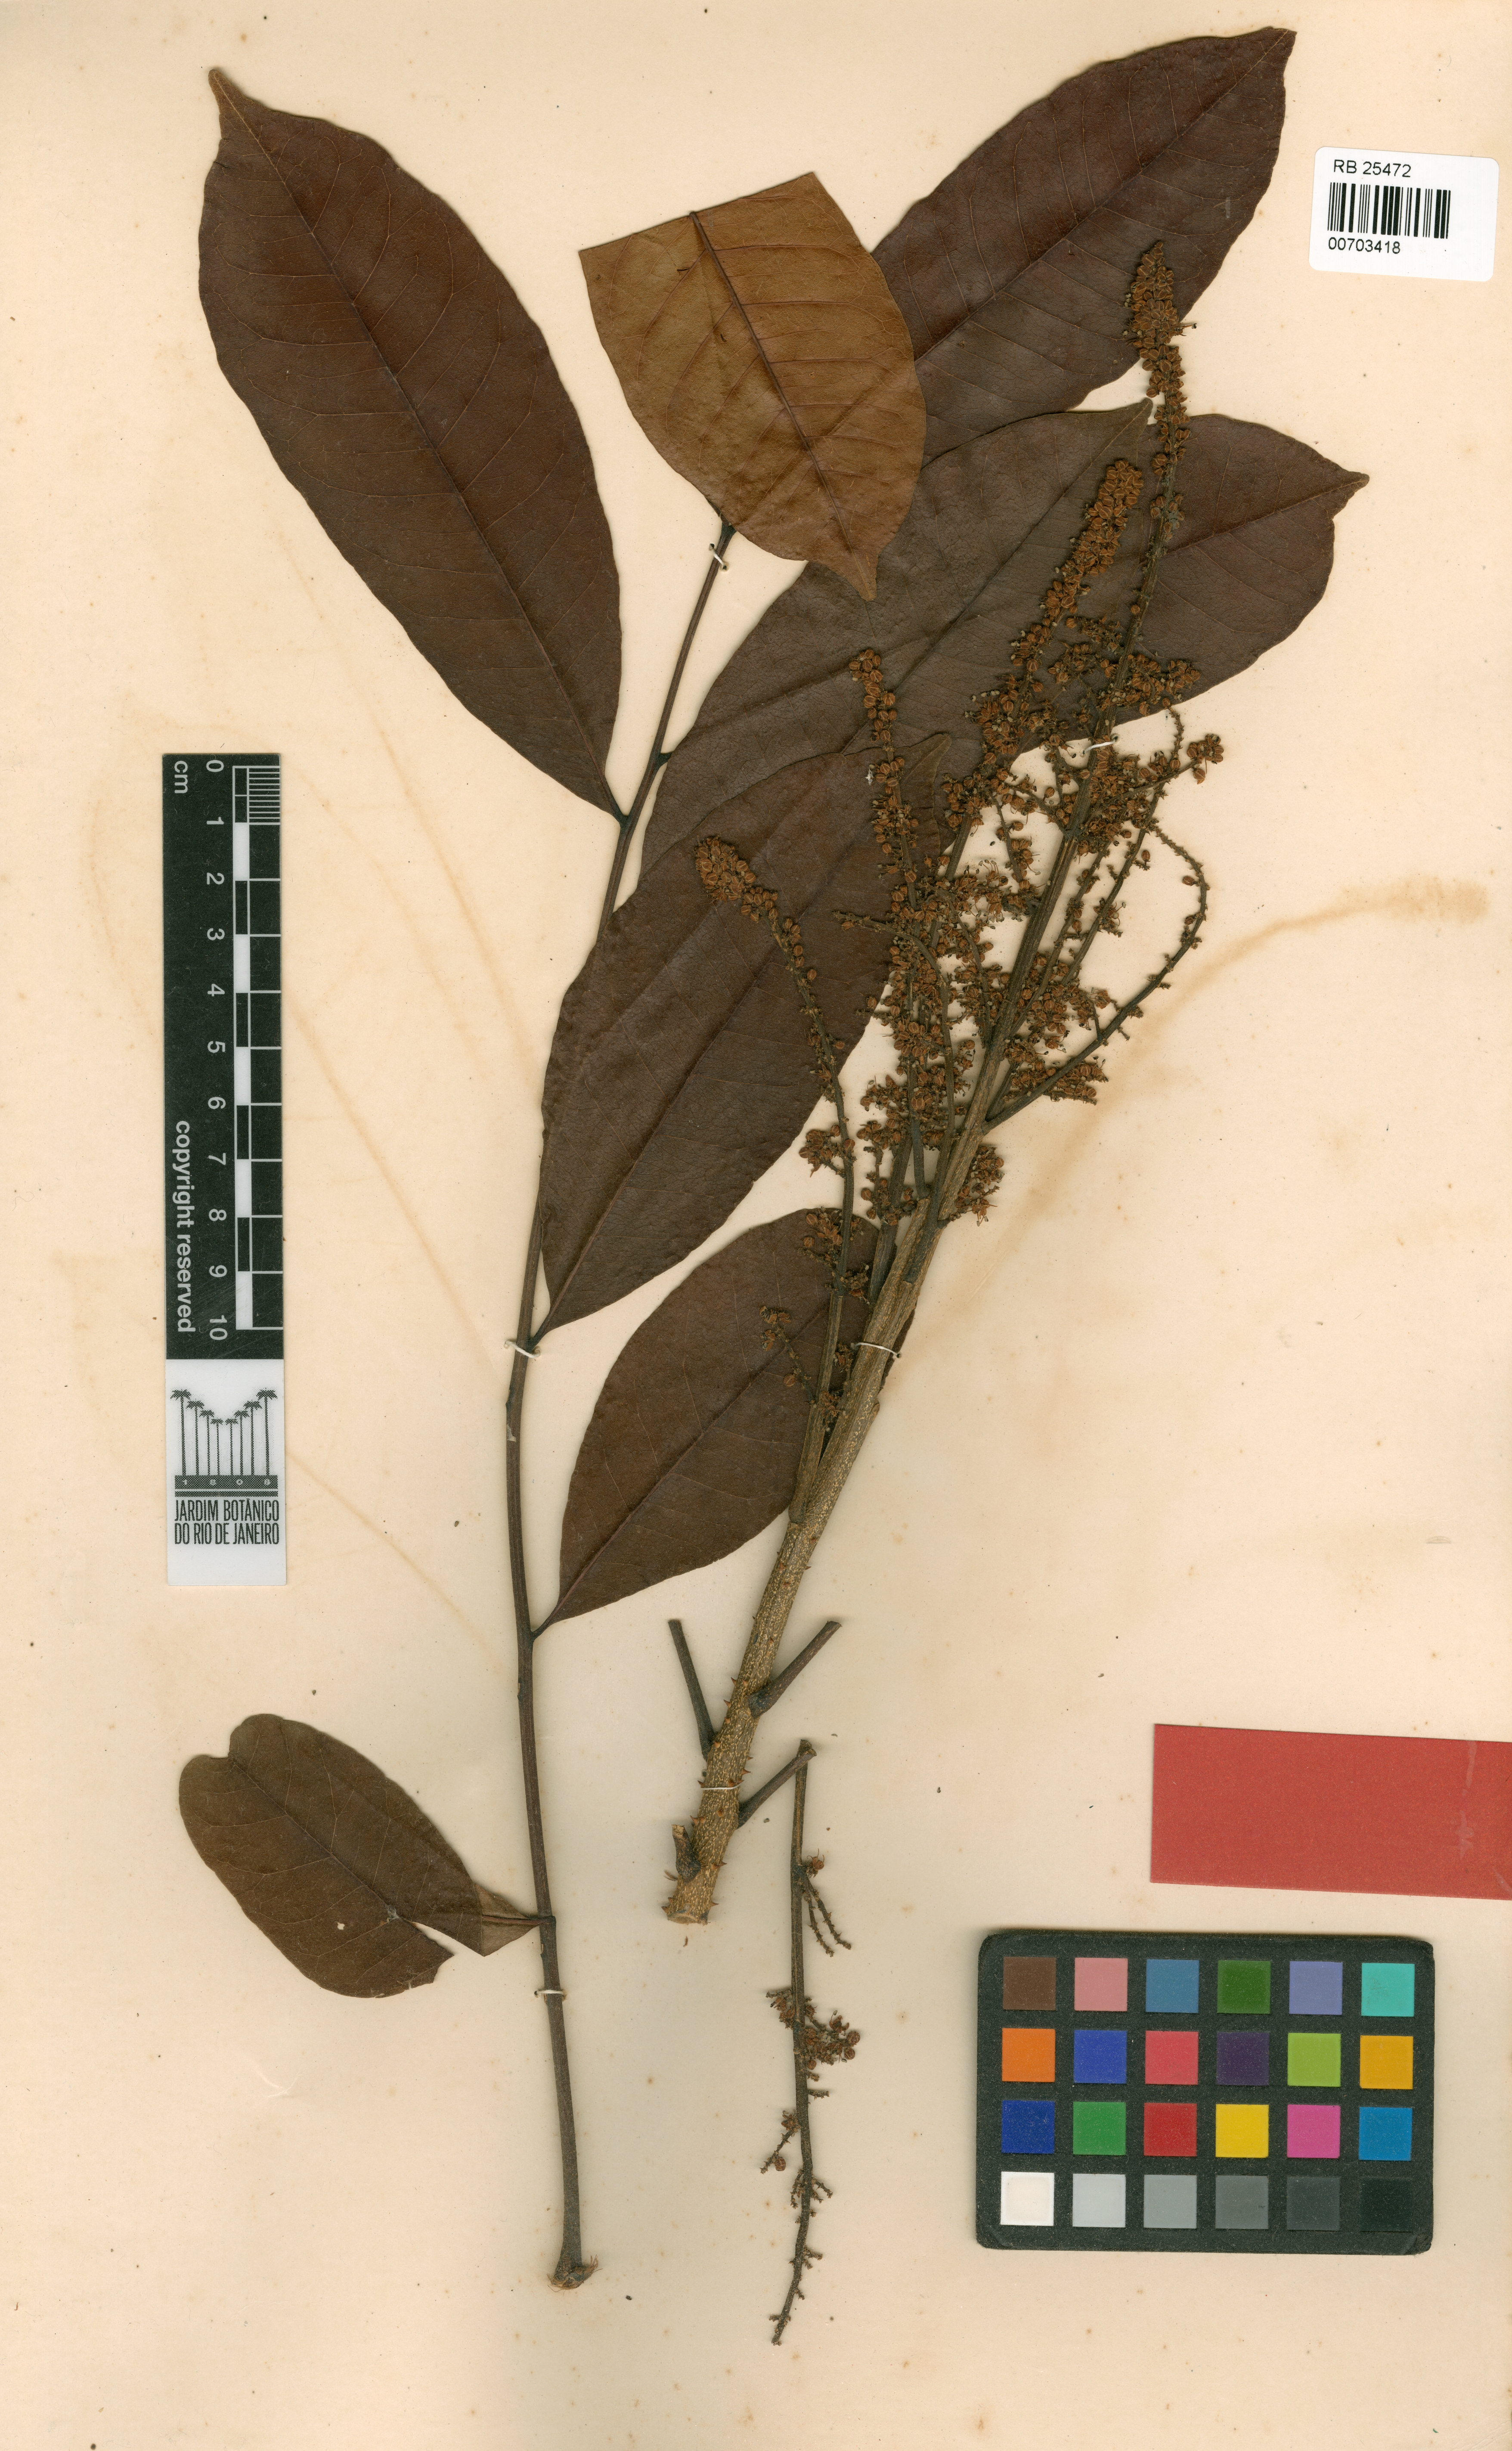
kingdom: Plantae
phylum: Tracheophyta
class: Magnoliopsida
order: Sapindales
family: Rutaceae
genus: Zanthoxylum
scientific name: Zanthoxylum compactum
